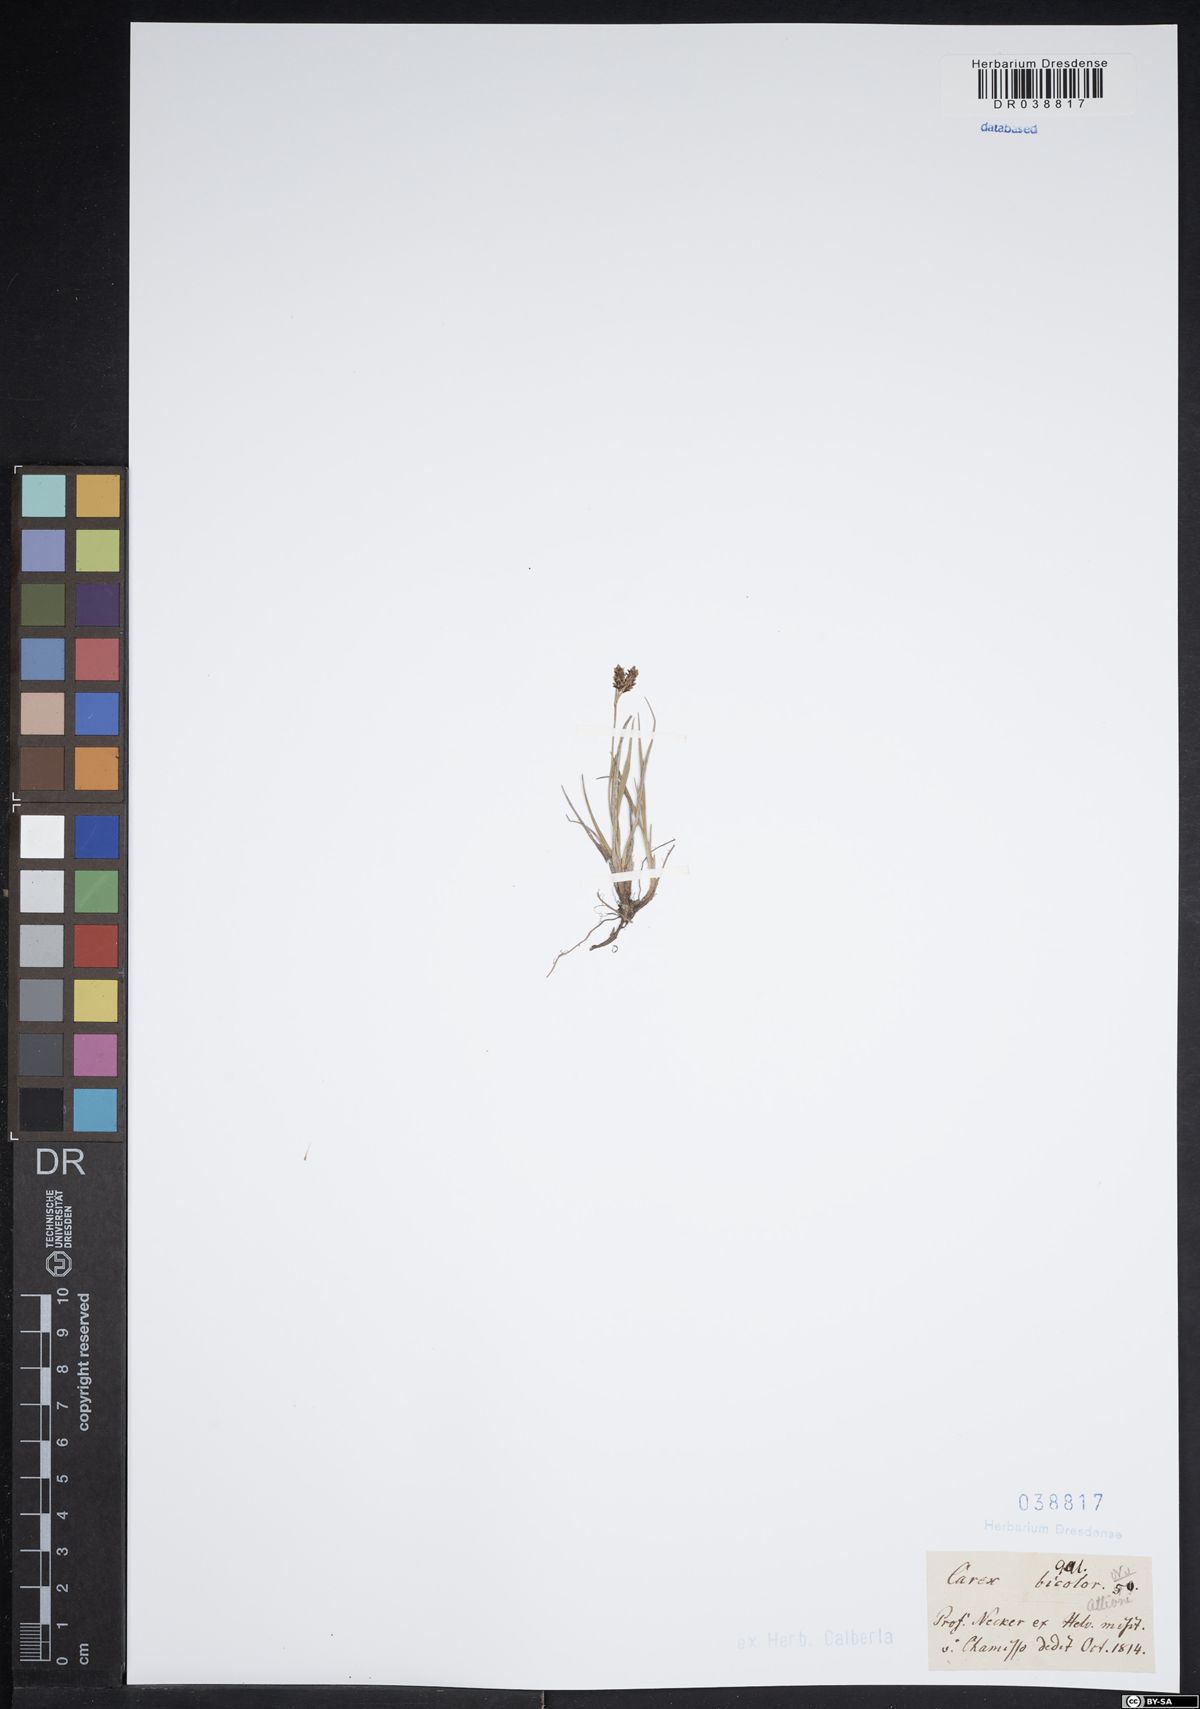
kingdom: Plantae
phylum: Tracheophyta
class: Liliopsida
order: Poales
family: Cyperaceae
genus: Carex
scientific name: Carex bicolor
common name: Bicoloured sedge
